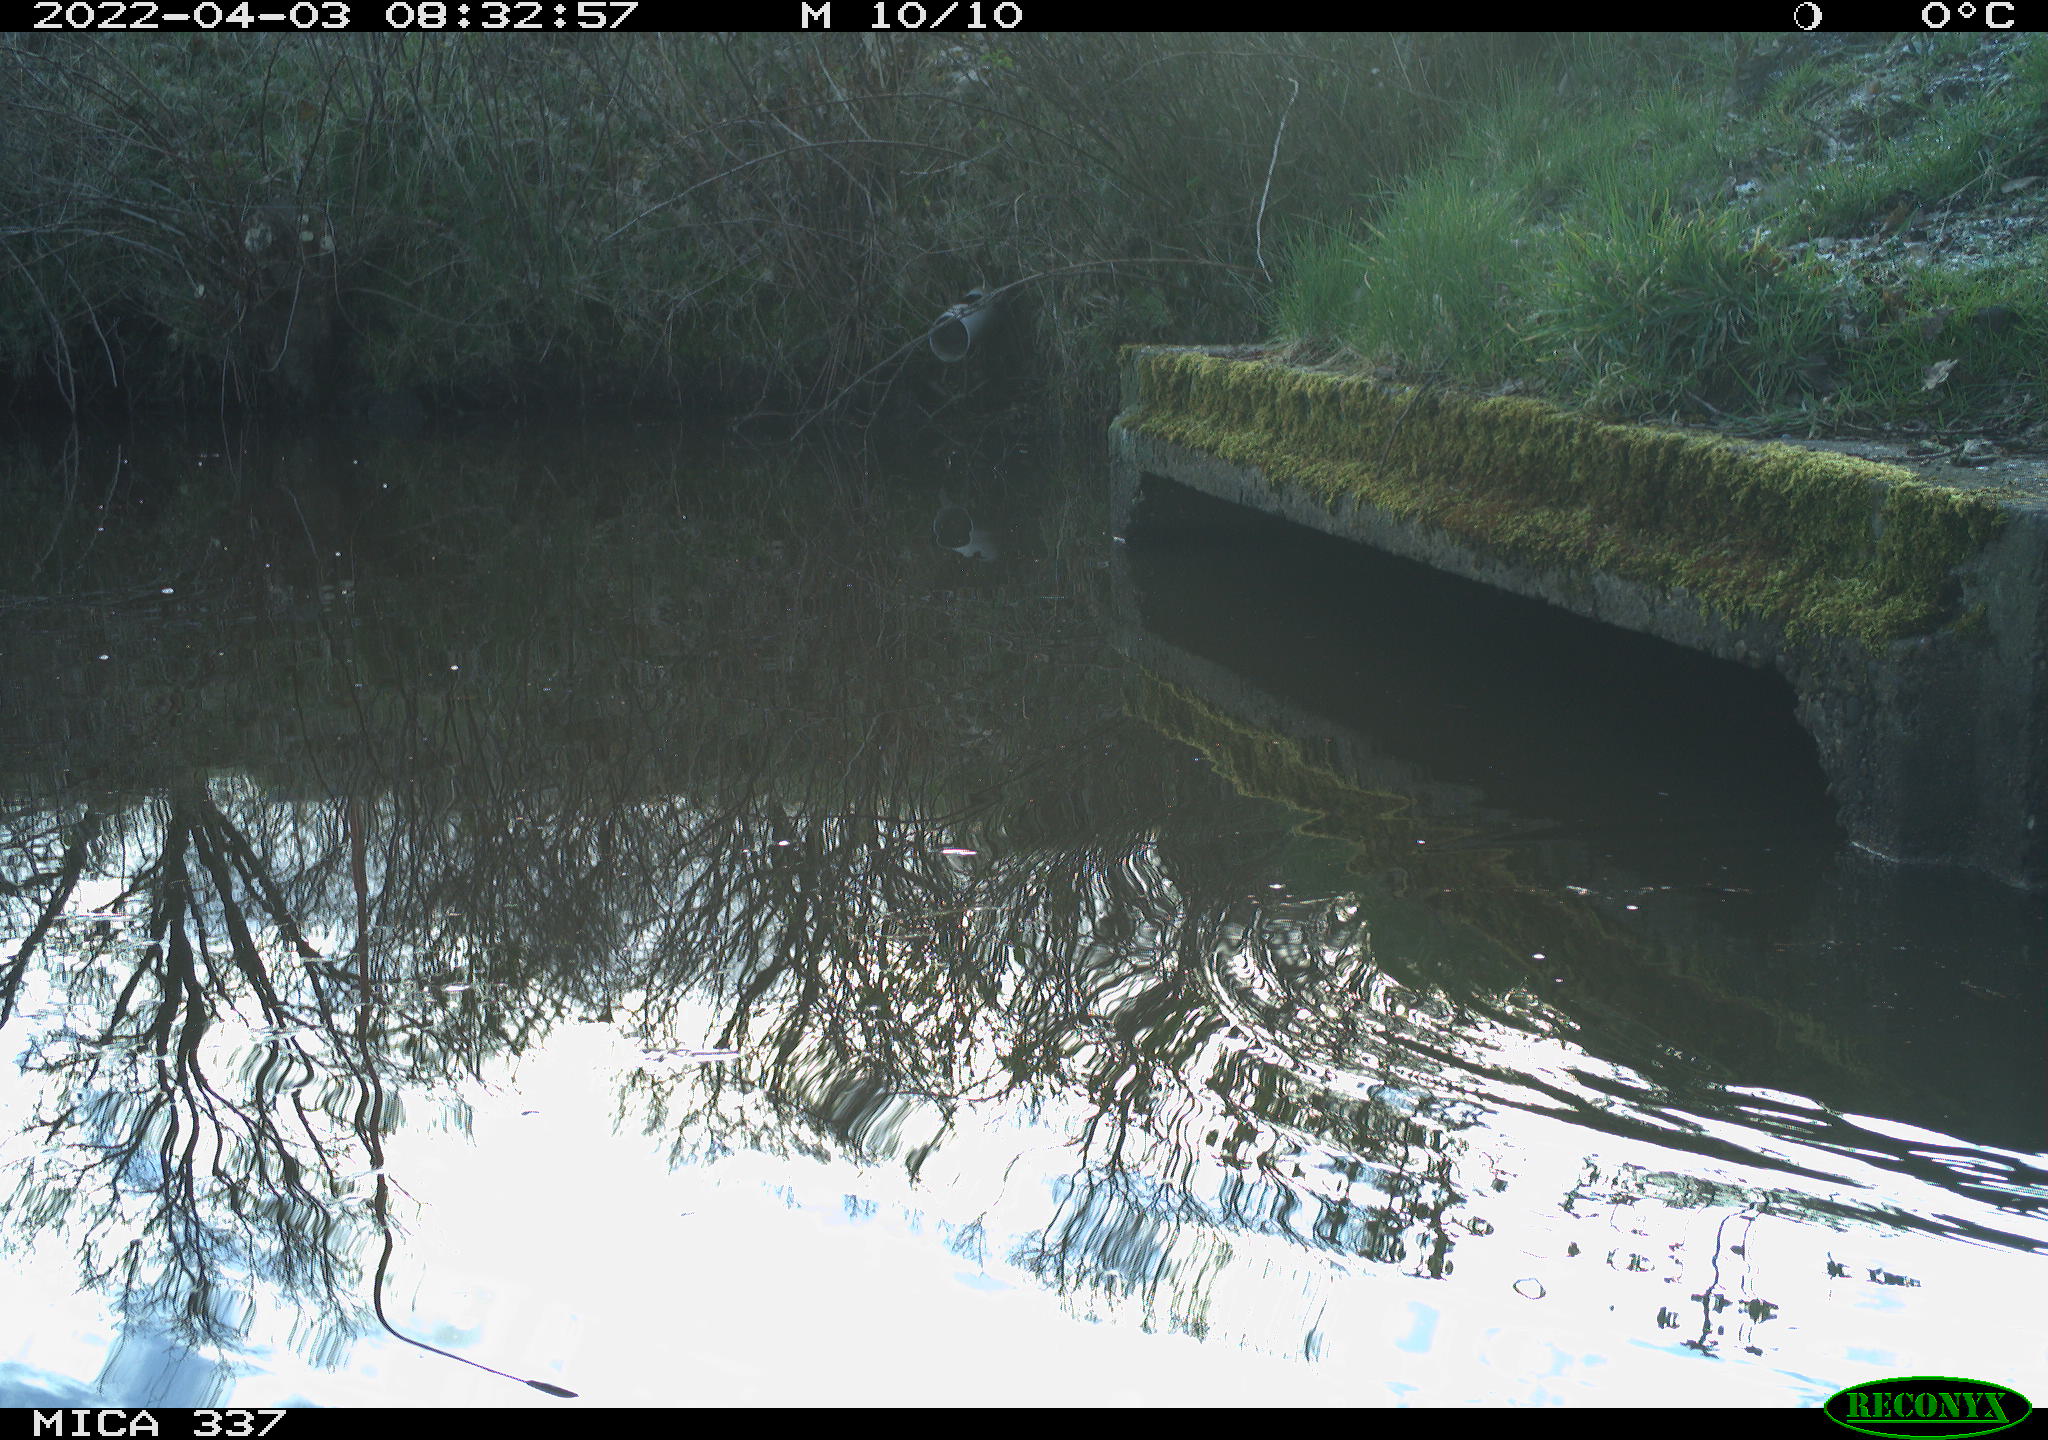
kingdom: Animalia
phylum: Chordata
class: Aves
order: Gruiformes
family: Rallidae
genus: Gallinula
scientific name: Gallinula chloropus
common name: Common moorhen
